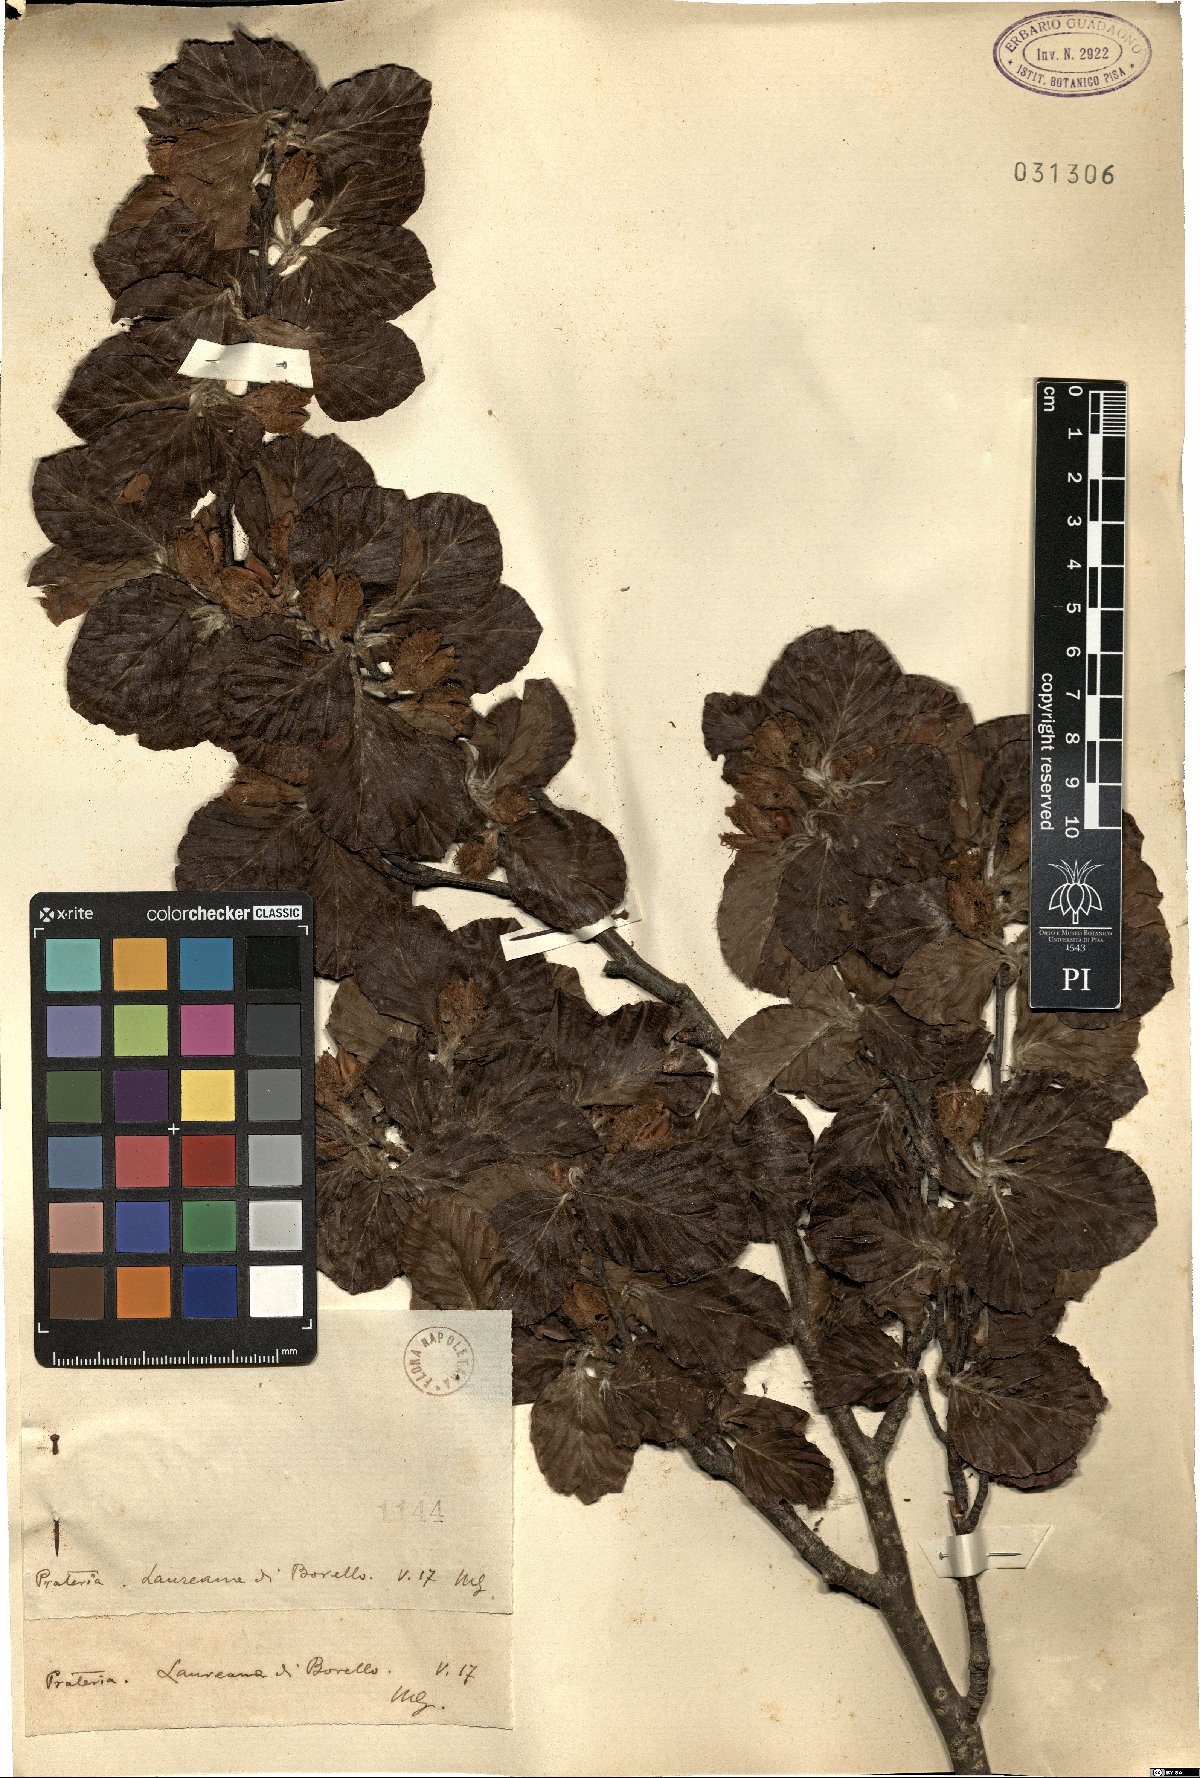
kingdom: Plantae
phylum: Tracheophyta
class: Magnoliopsida
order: Fagales
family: Fagaceae
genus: Fagus
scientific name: Fagus
